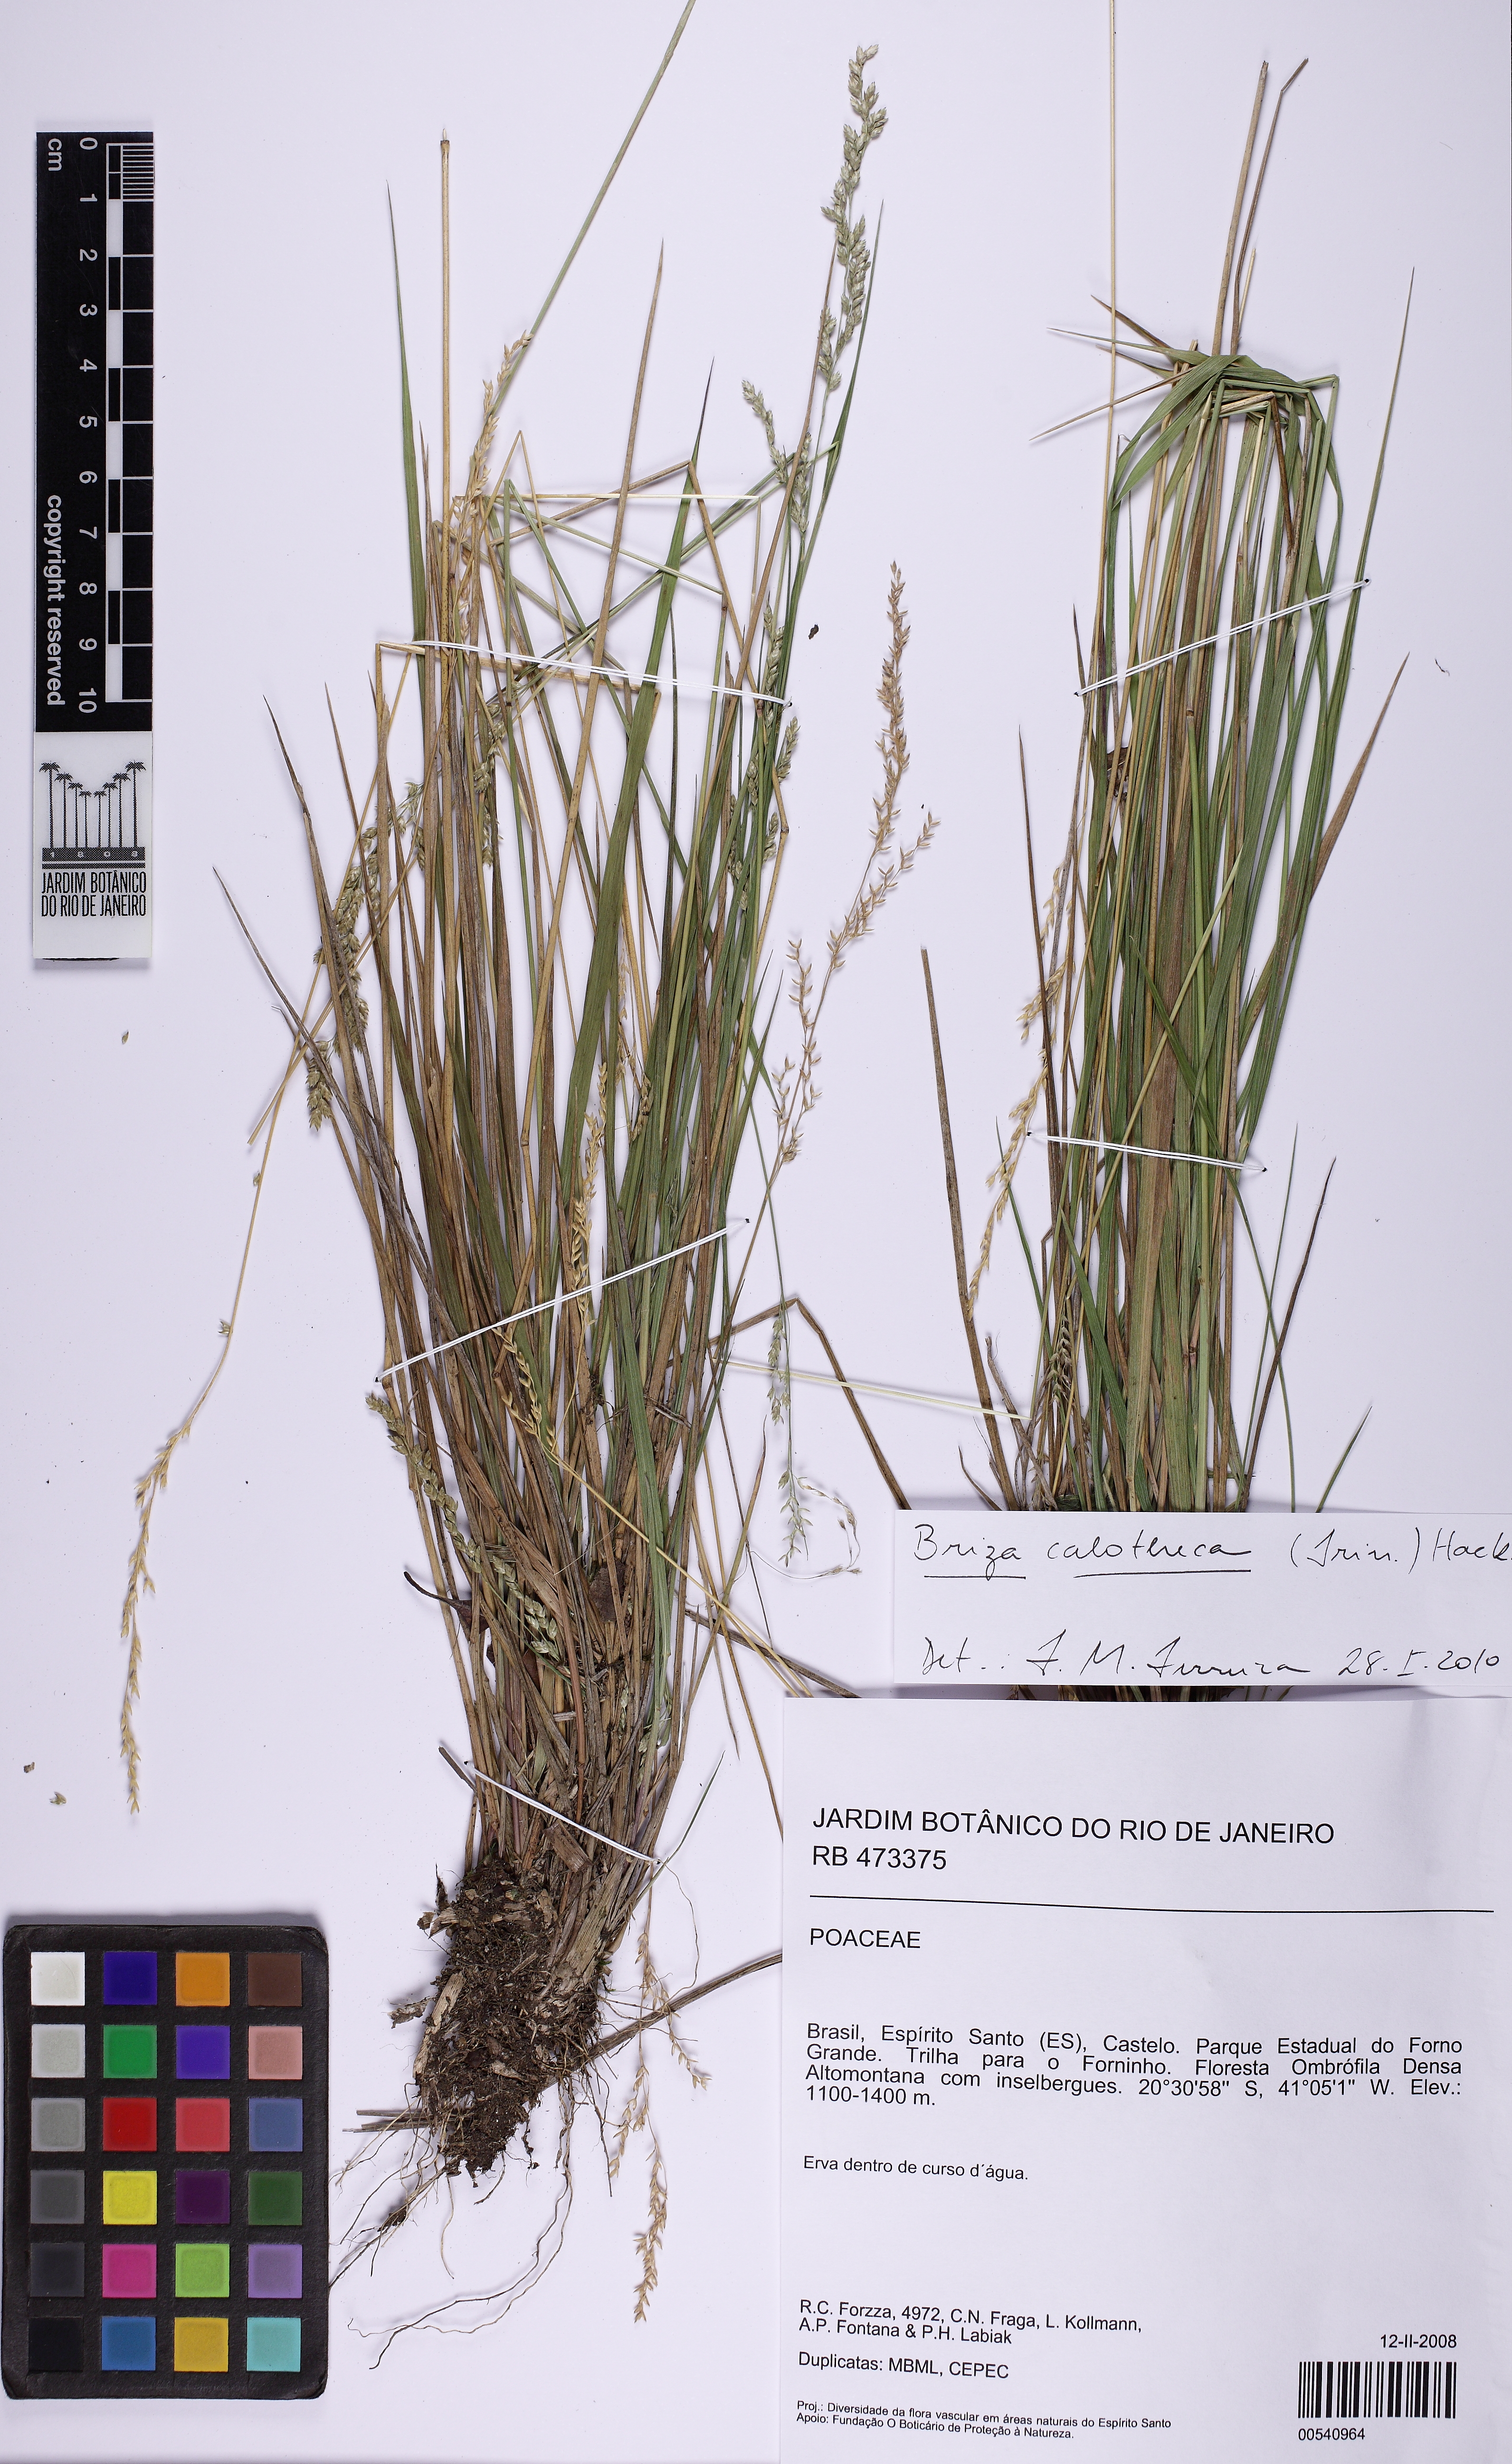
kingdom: Plantae
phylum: Tracheophyta
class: Liliopsida
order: Poales
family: Poaceae
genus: Poidium
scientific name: Poidium calotheca
